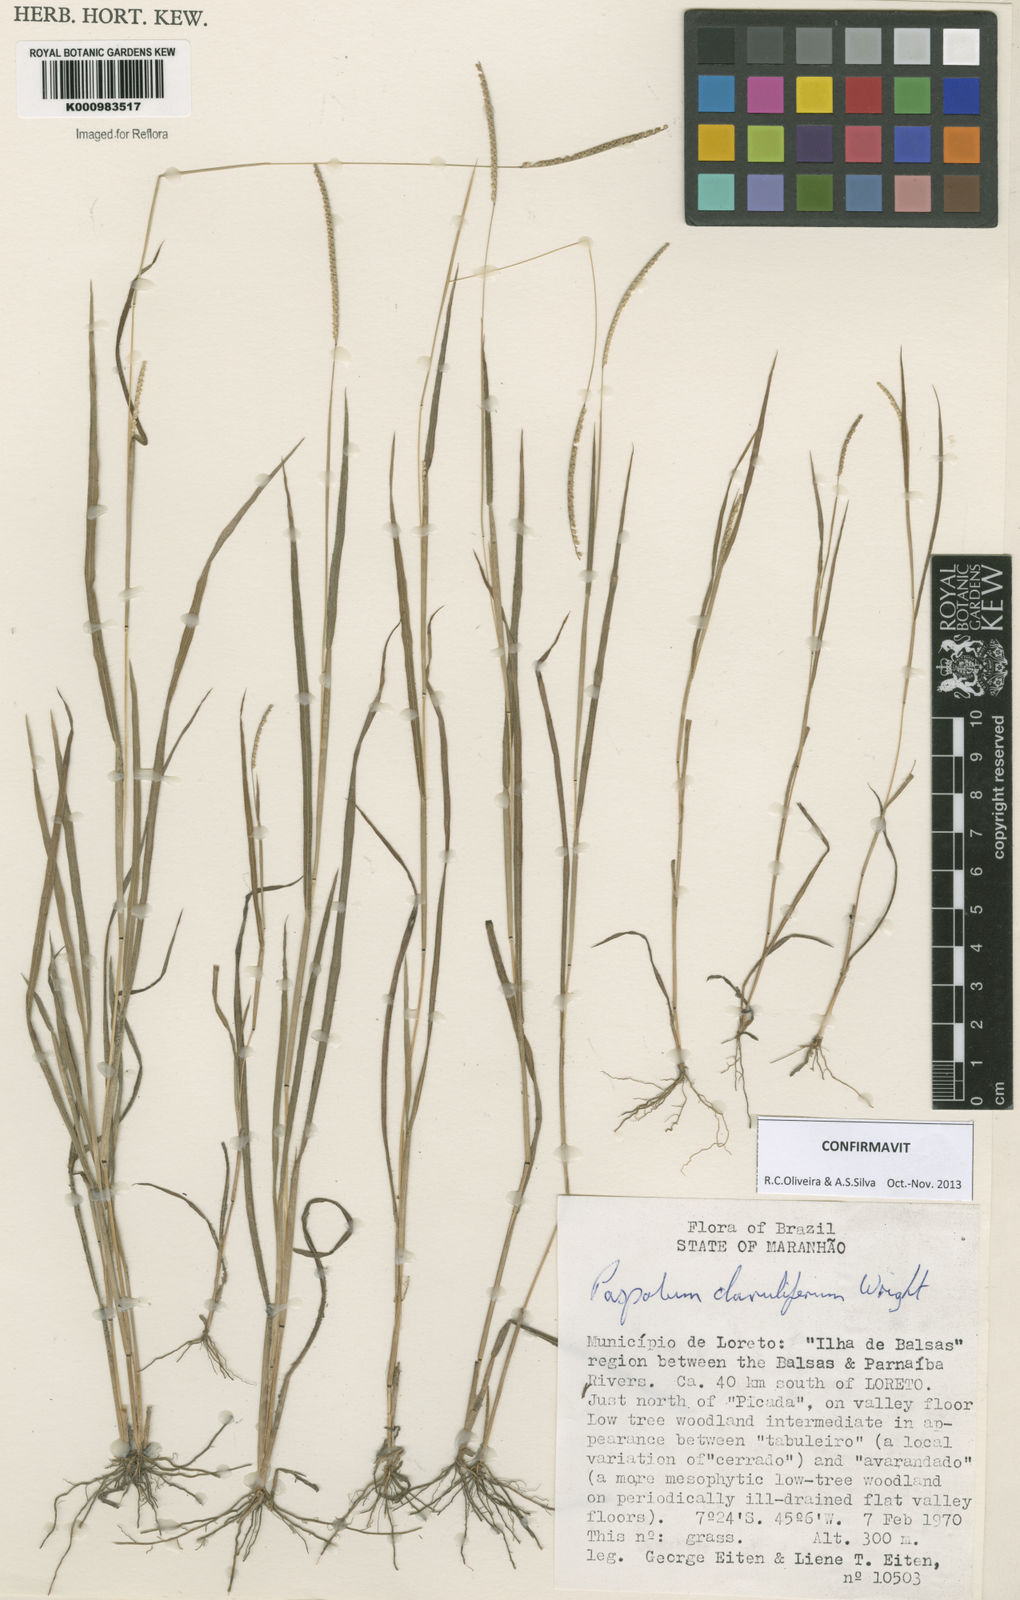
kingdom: Plantae
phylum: Tracheophyta
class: Liliopsida
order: Poales
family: Poaceae
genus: Paspalum
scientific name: Paspalum clavuliferum
